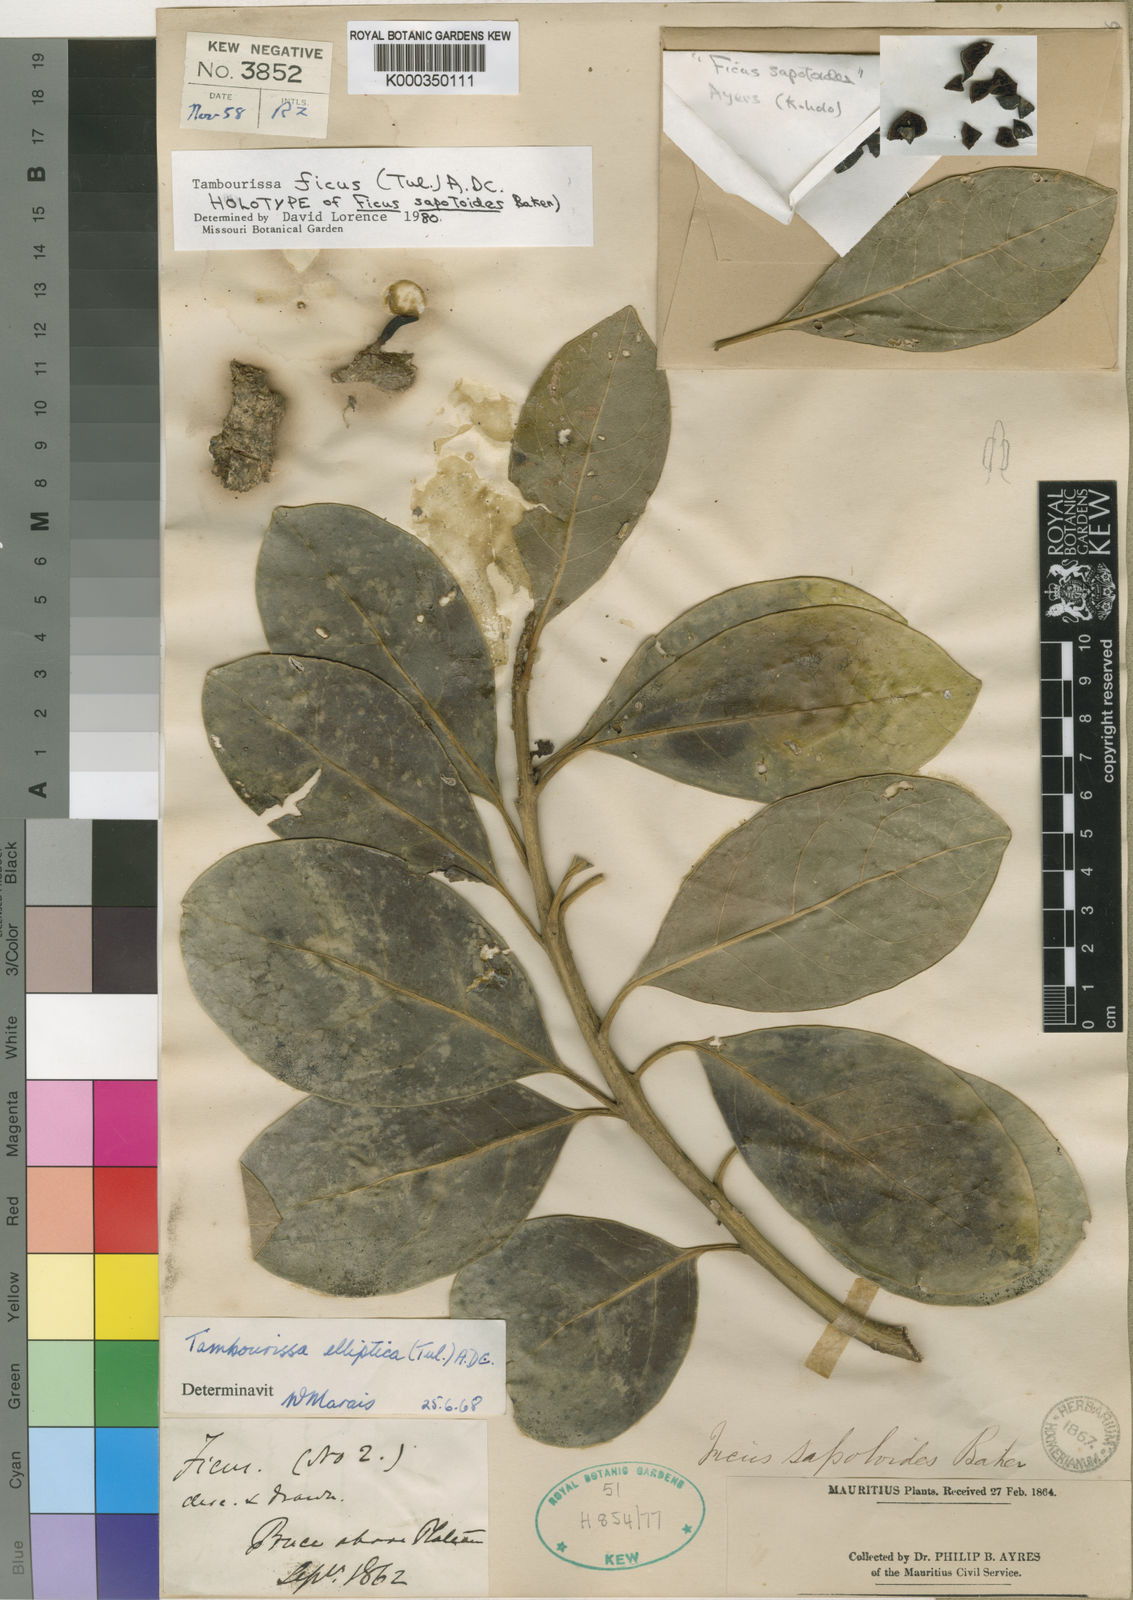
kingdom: Plantae
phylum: Tracheophyta
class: Magnoliopsida
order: Laurales
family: Monimiaceae
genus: Tambourissa
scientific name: Tambourissa ficus
